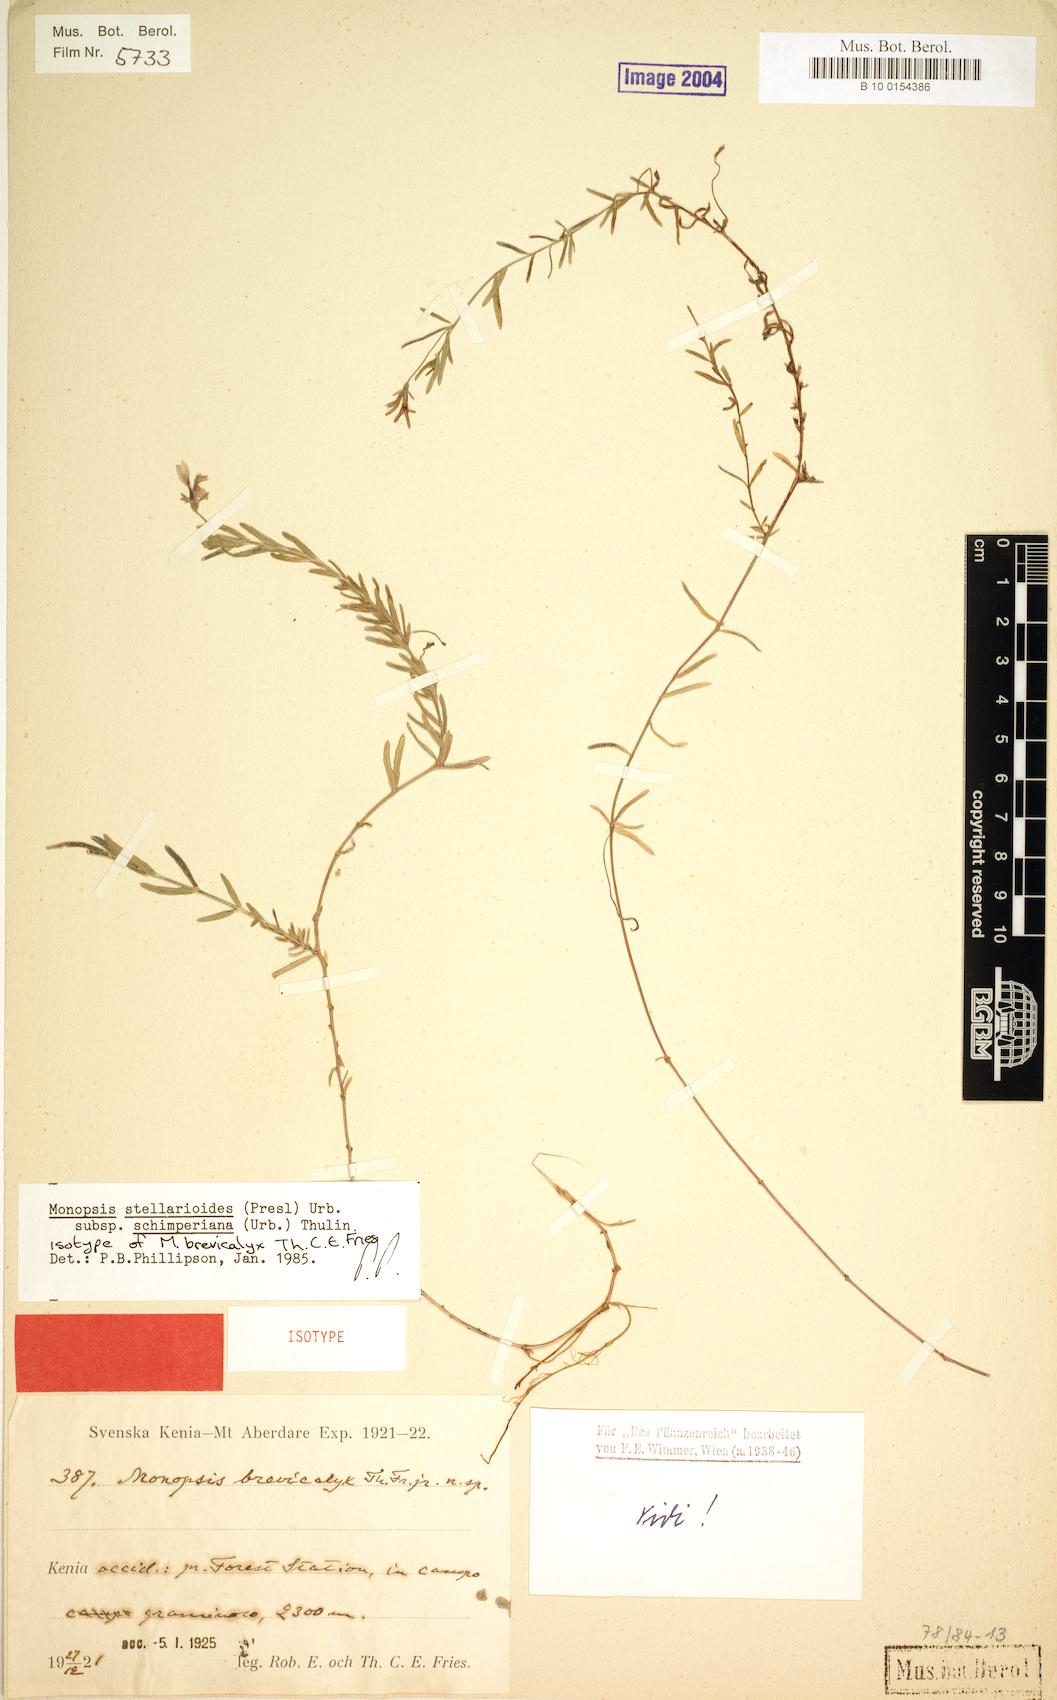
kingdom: Plantae
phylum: Tracheophyta
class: Magnoliopsida
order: Asterales
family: Campanulaceae
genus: Monopsis
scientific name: Monopsis stellarioides
